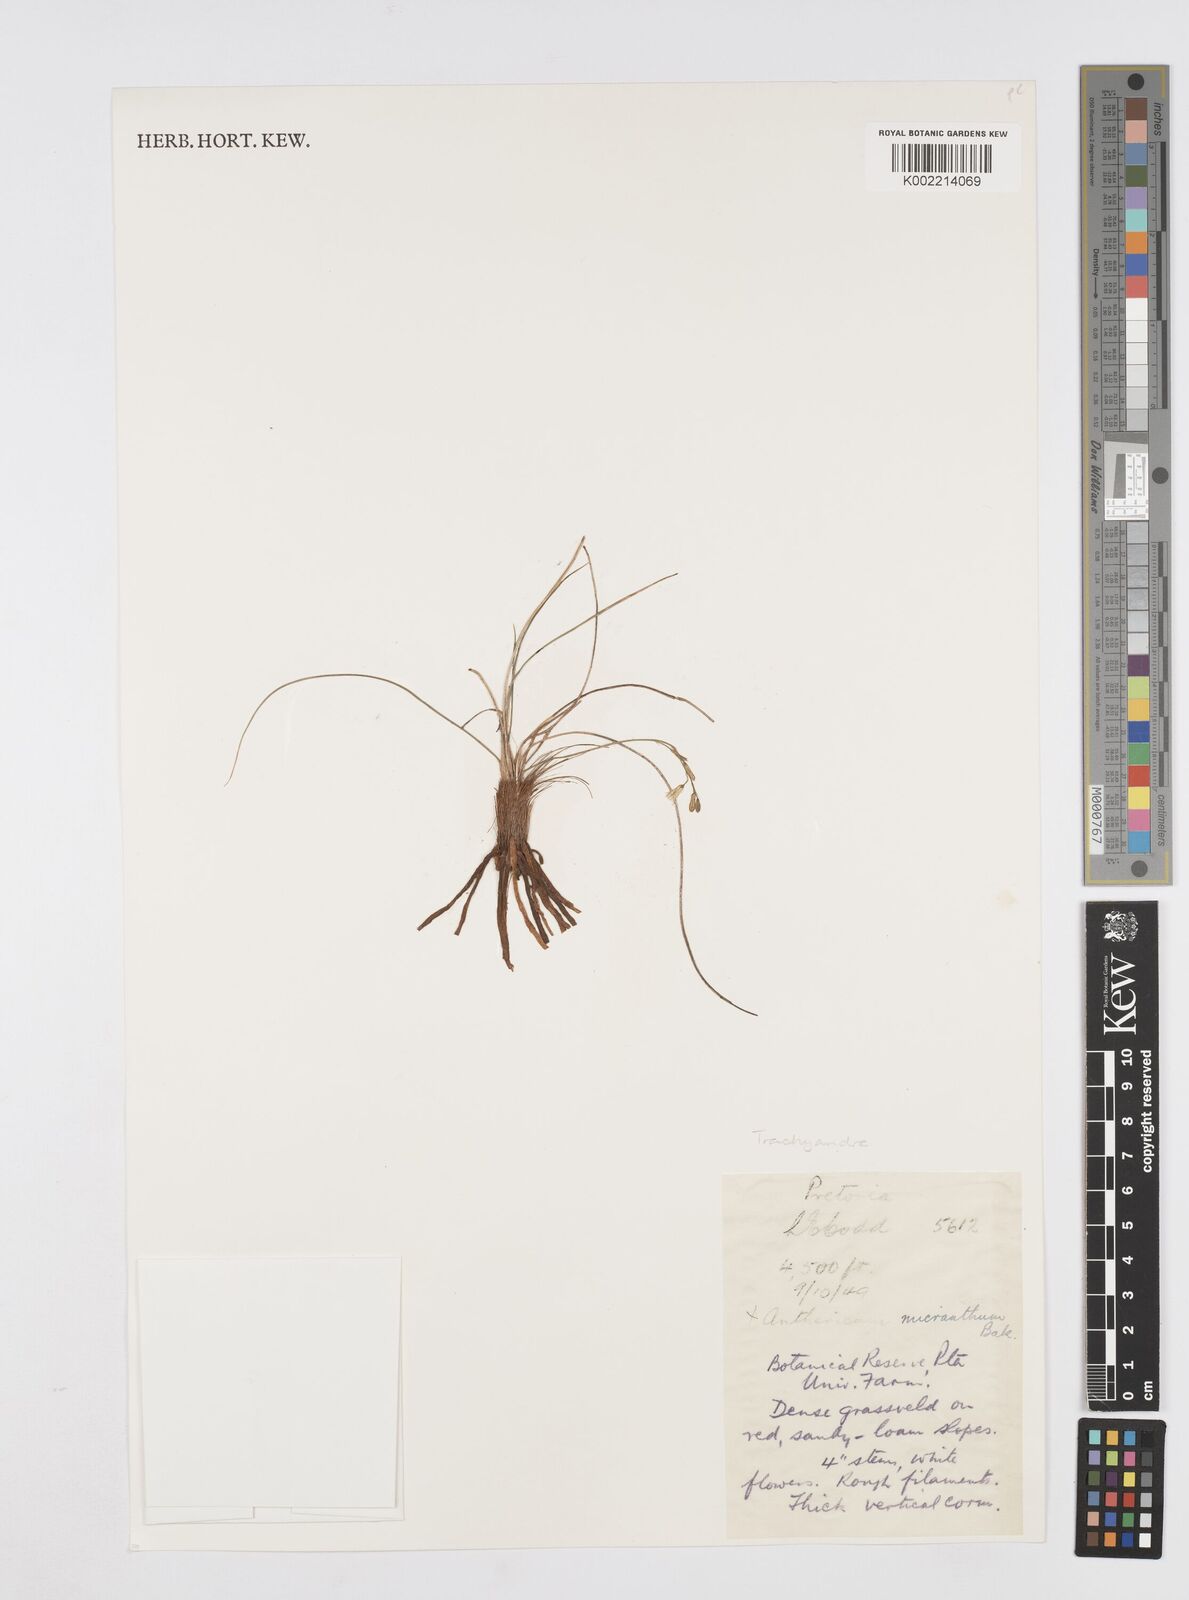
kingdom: Plantae
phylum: Tracheophyta
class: Liliopsida
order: Asparagales
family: Asphodelaceae
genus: Trachyandra
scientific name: Trachyandra
